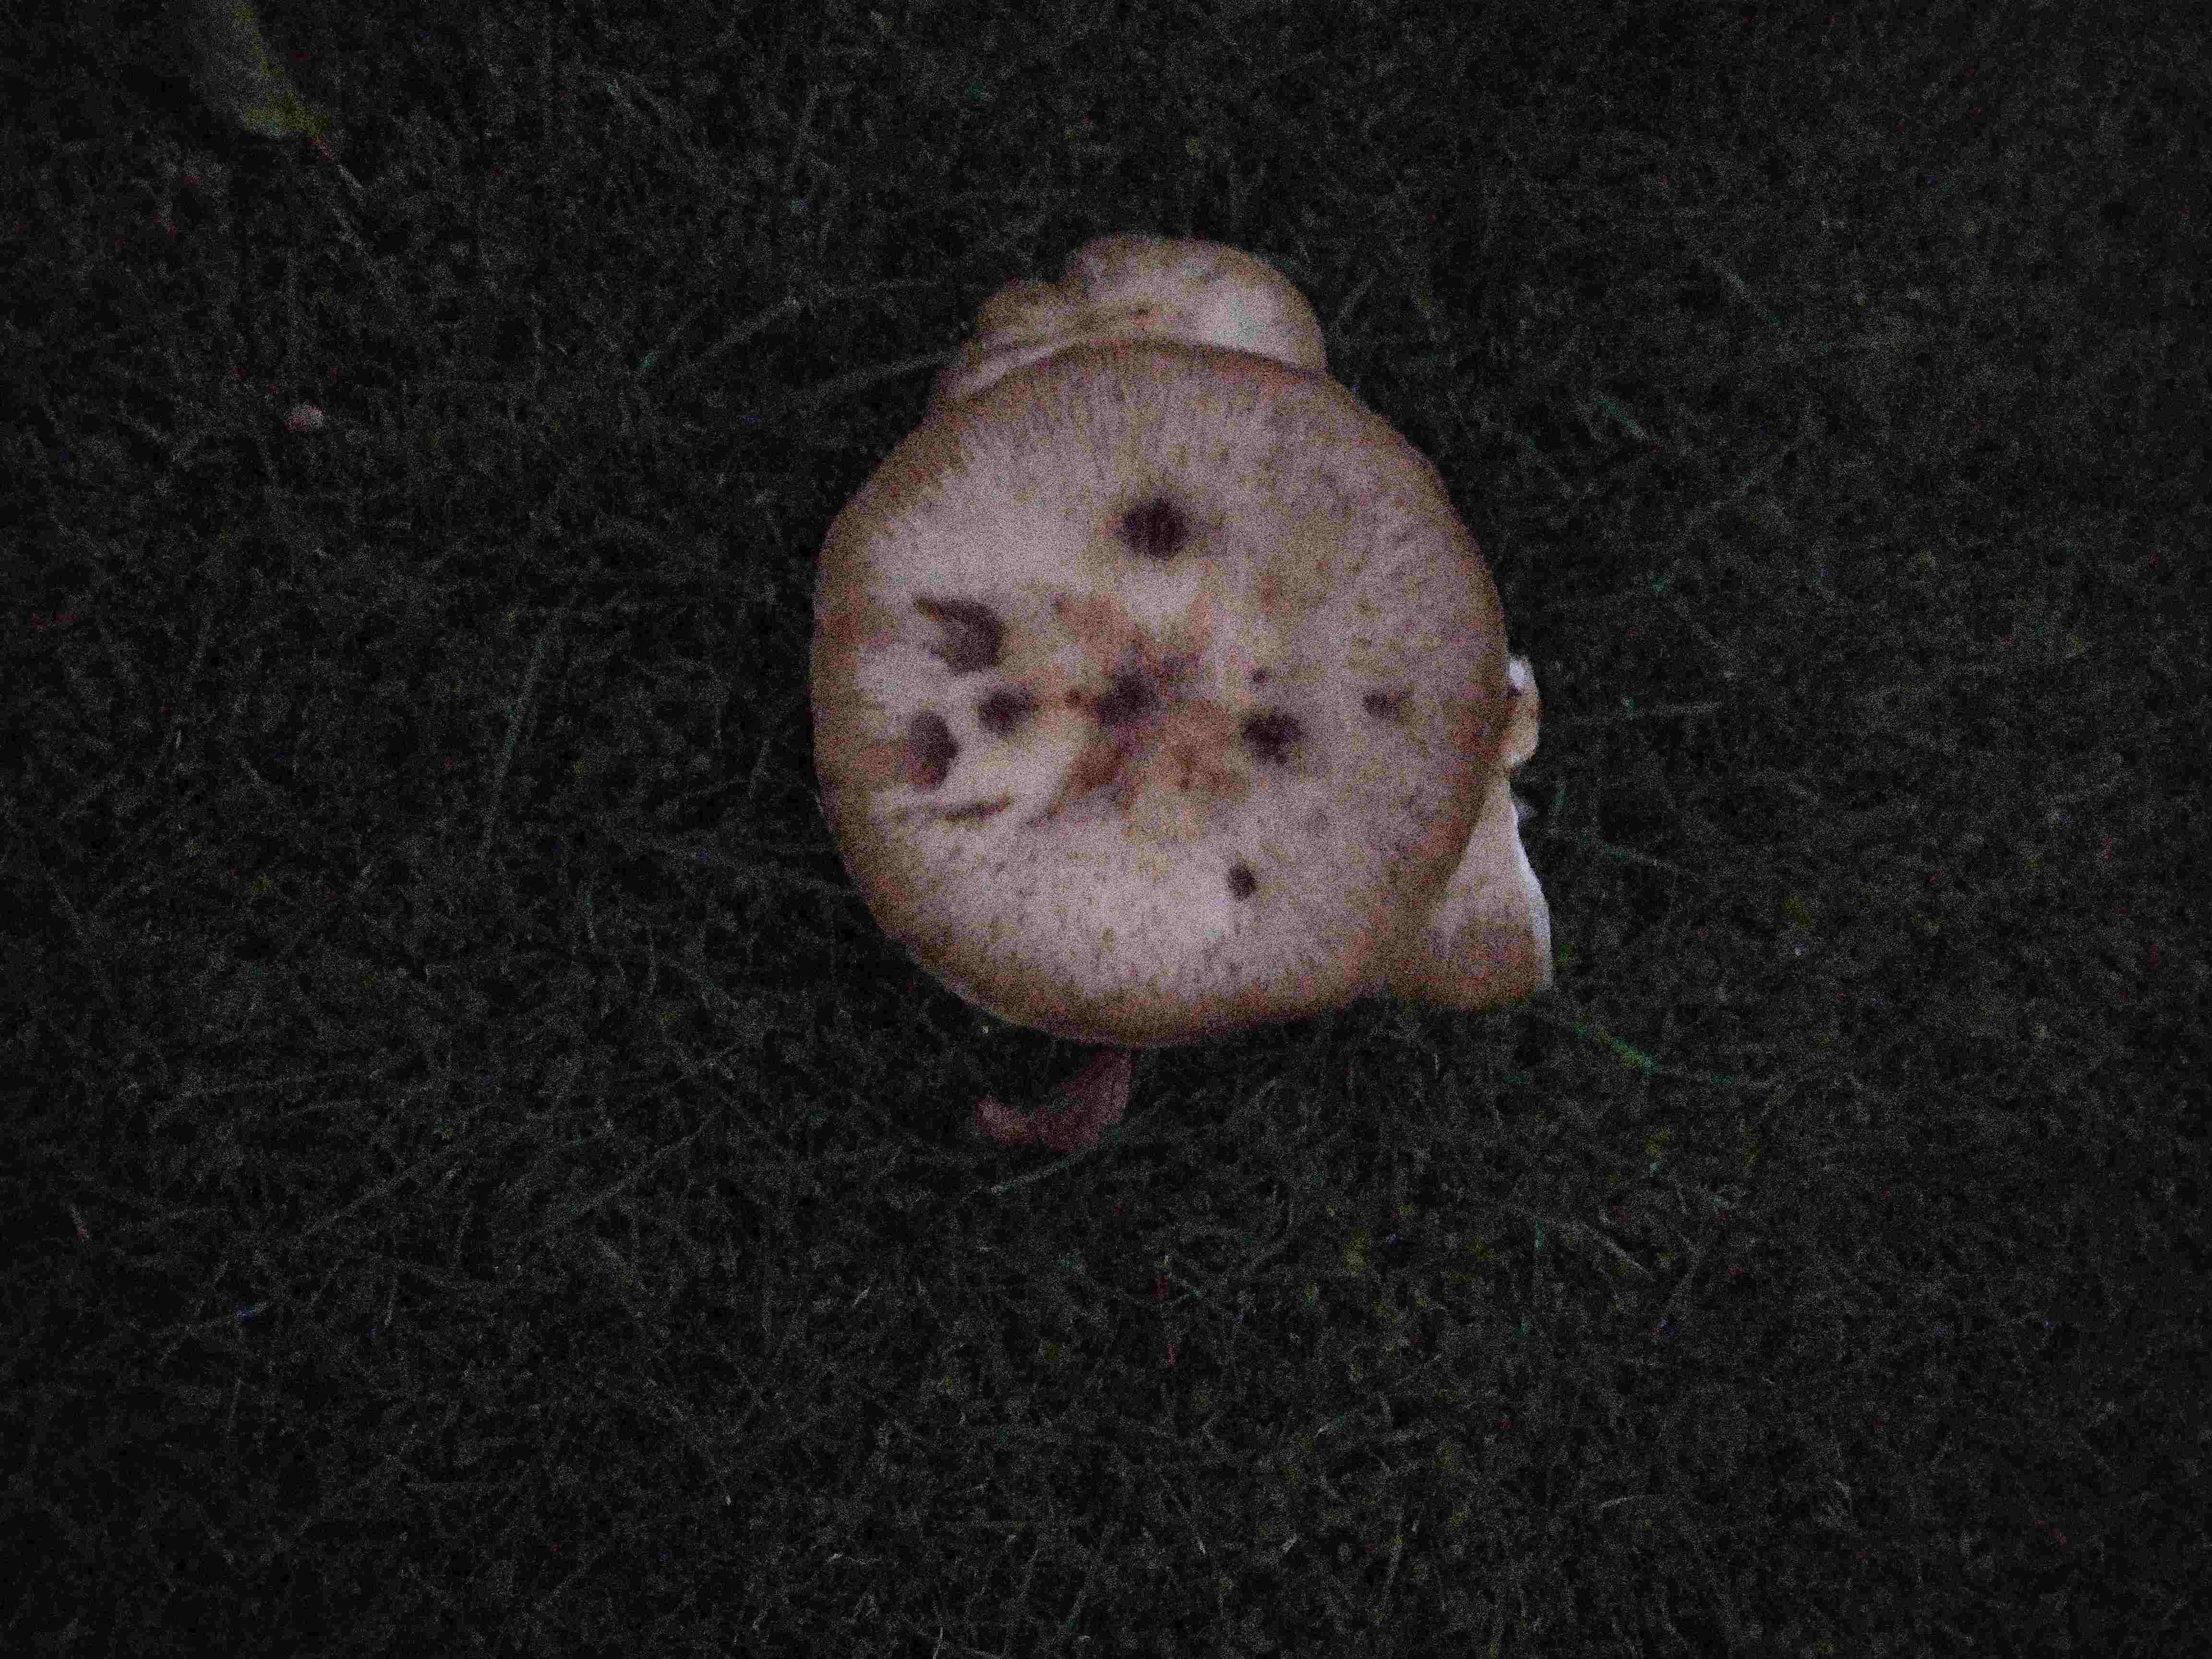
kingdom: Fungi
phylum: Basidiomycota
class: Agaricomycetes
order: Agaricales
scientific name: Agaricales
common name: champignonordenen
